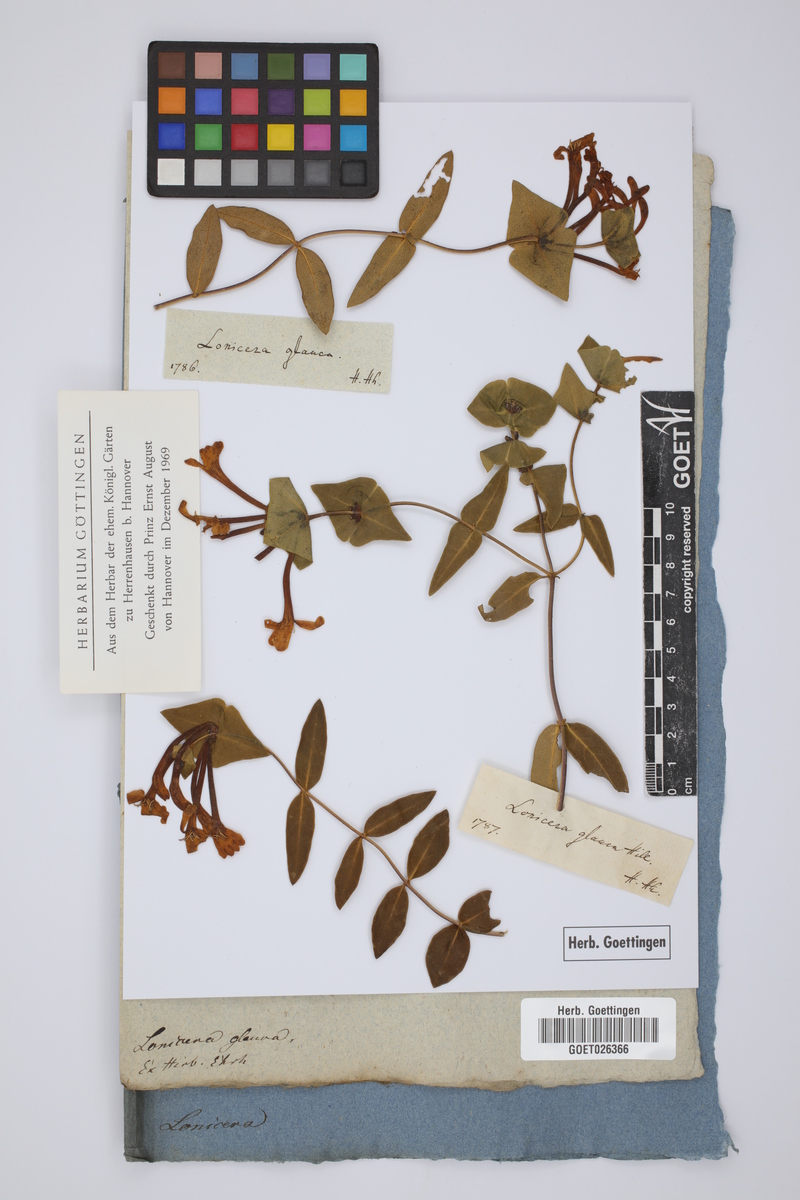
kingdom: Plantae
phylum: Tracheophyta
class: Magnoliopsida
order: Dipsacales
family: Caprifoliaceae
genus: Lonicera
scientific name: Lonicera dioica
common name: Limber honeysuckle
